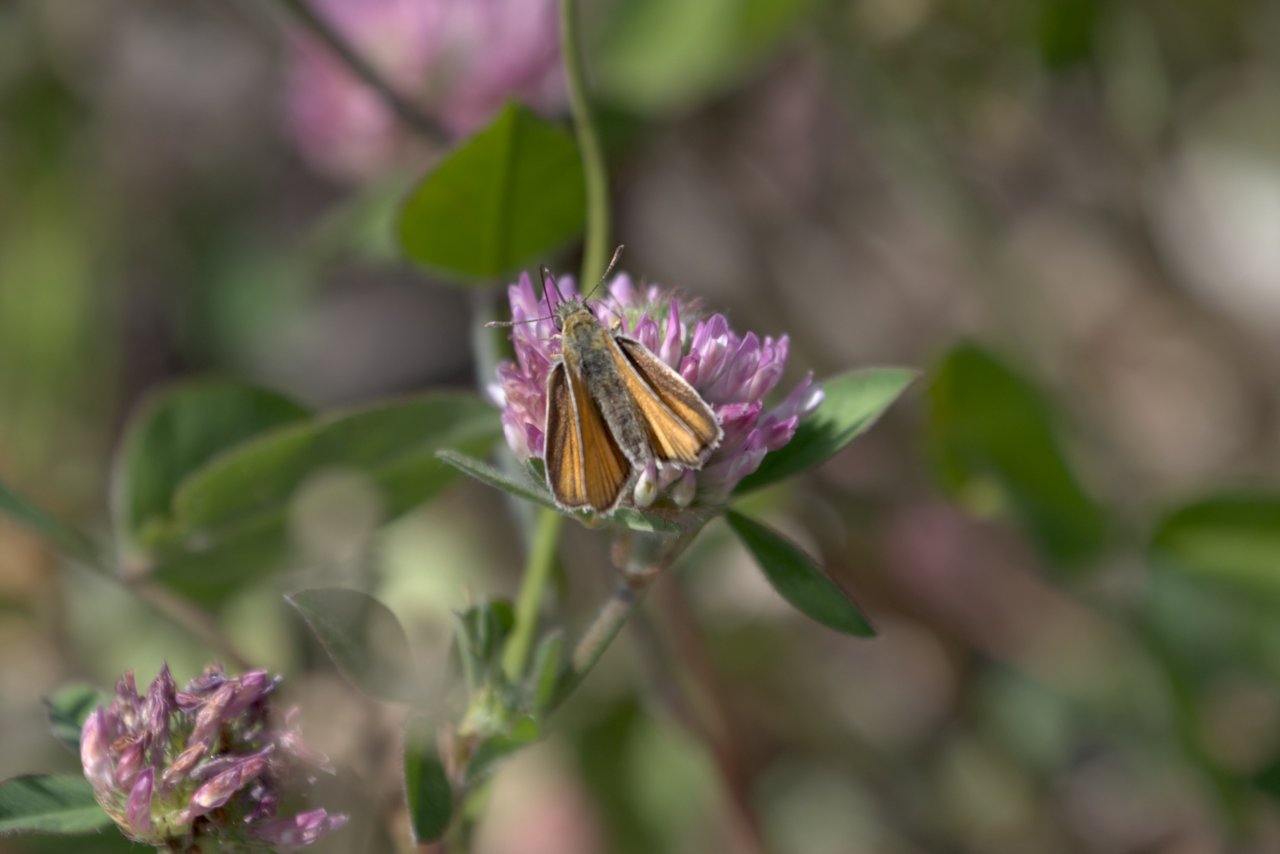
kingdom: Animalia
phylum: Arthropoda
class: Insecta
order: Lepidoptera
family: Hesperiidae
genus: Thymelicus
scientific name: Thymelicus lineola
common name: European Skipper
